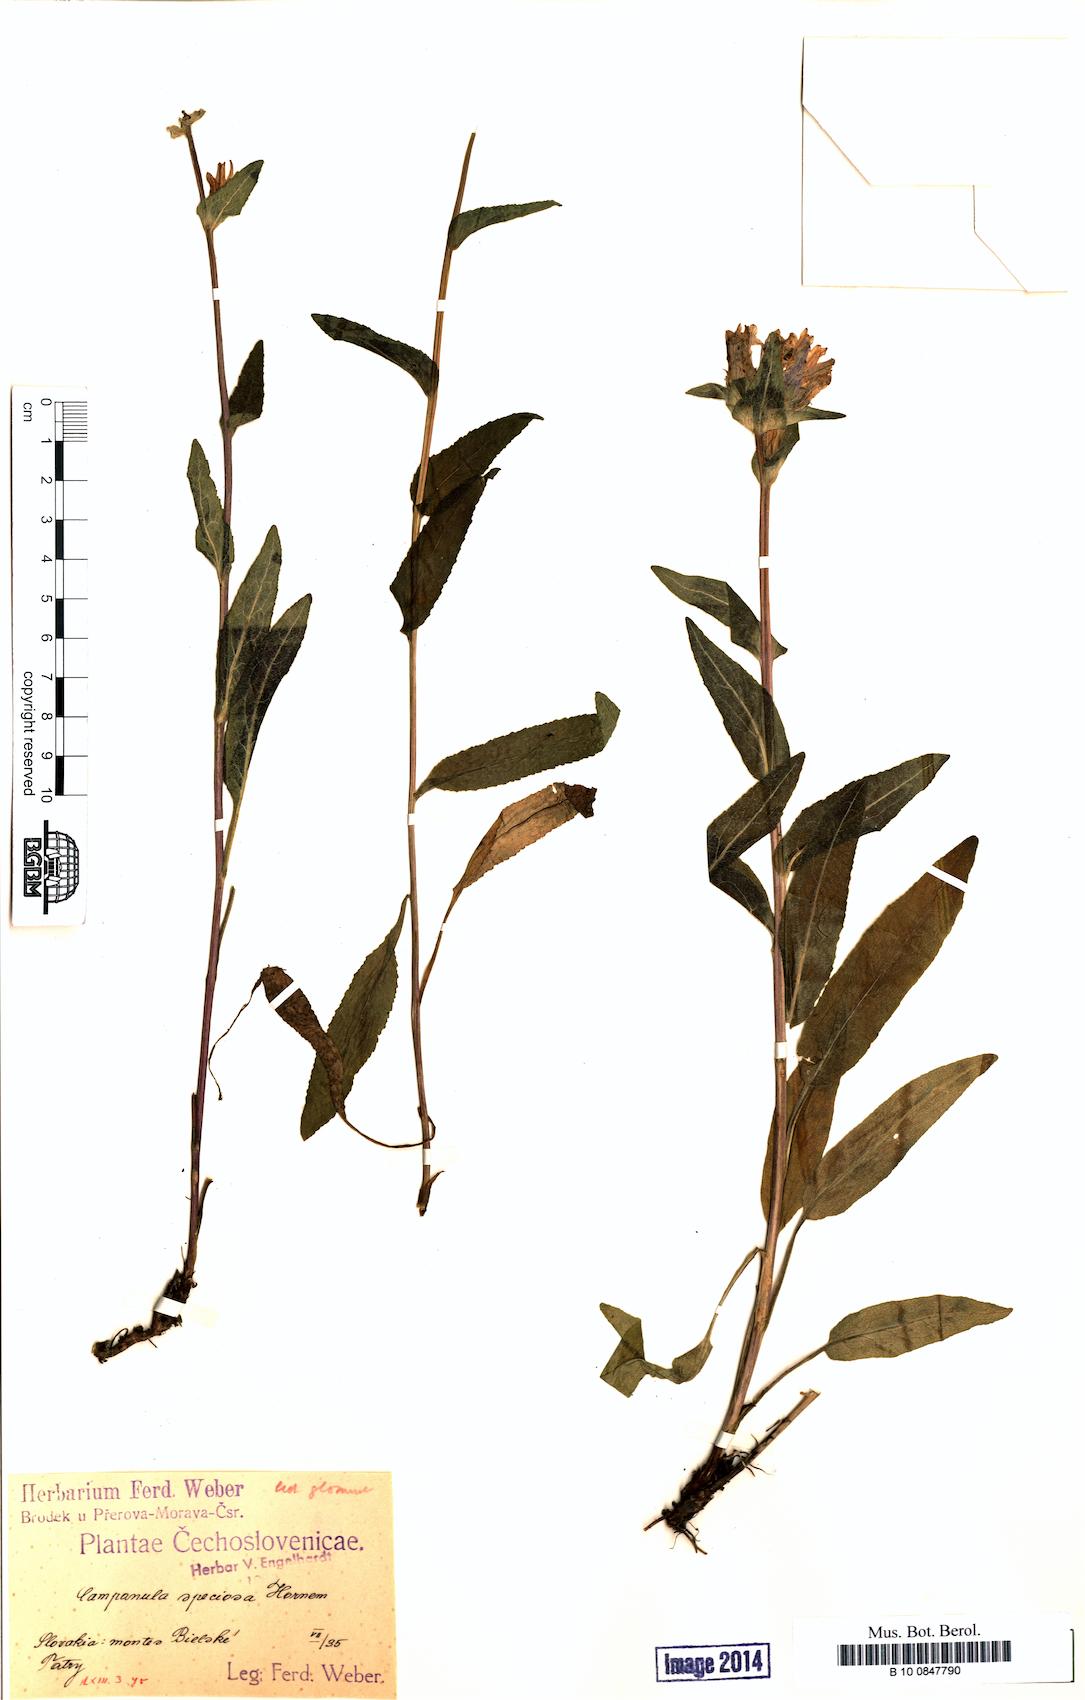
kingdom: Plantae
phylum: Tracheophyta
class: Magnoliopsida
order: Asterales
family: Campanulaceae
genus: Campanula
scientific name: Campanula glomerata
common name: Clustered bellflower
